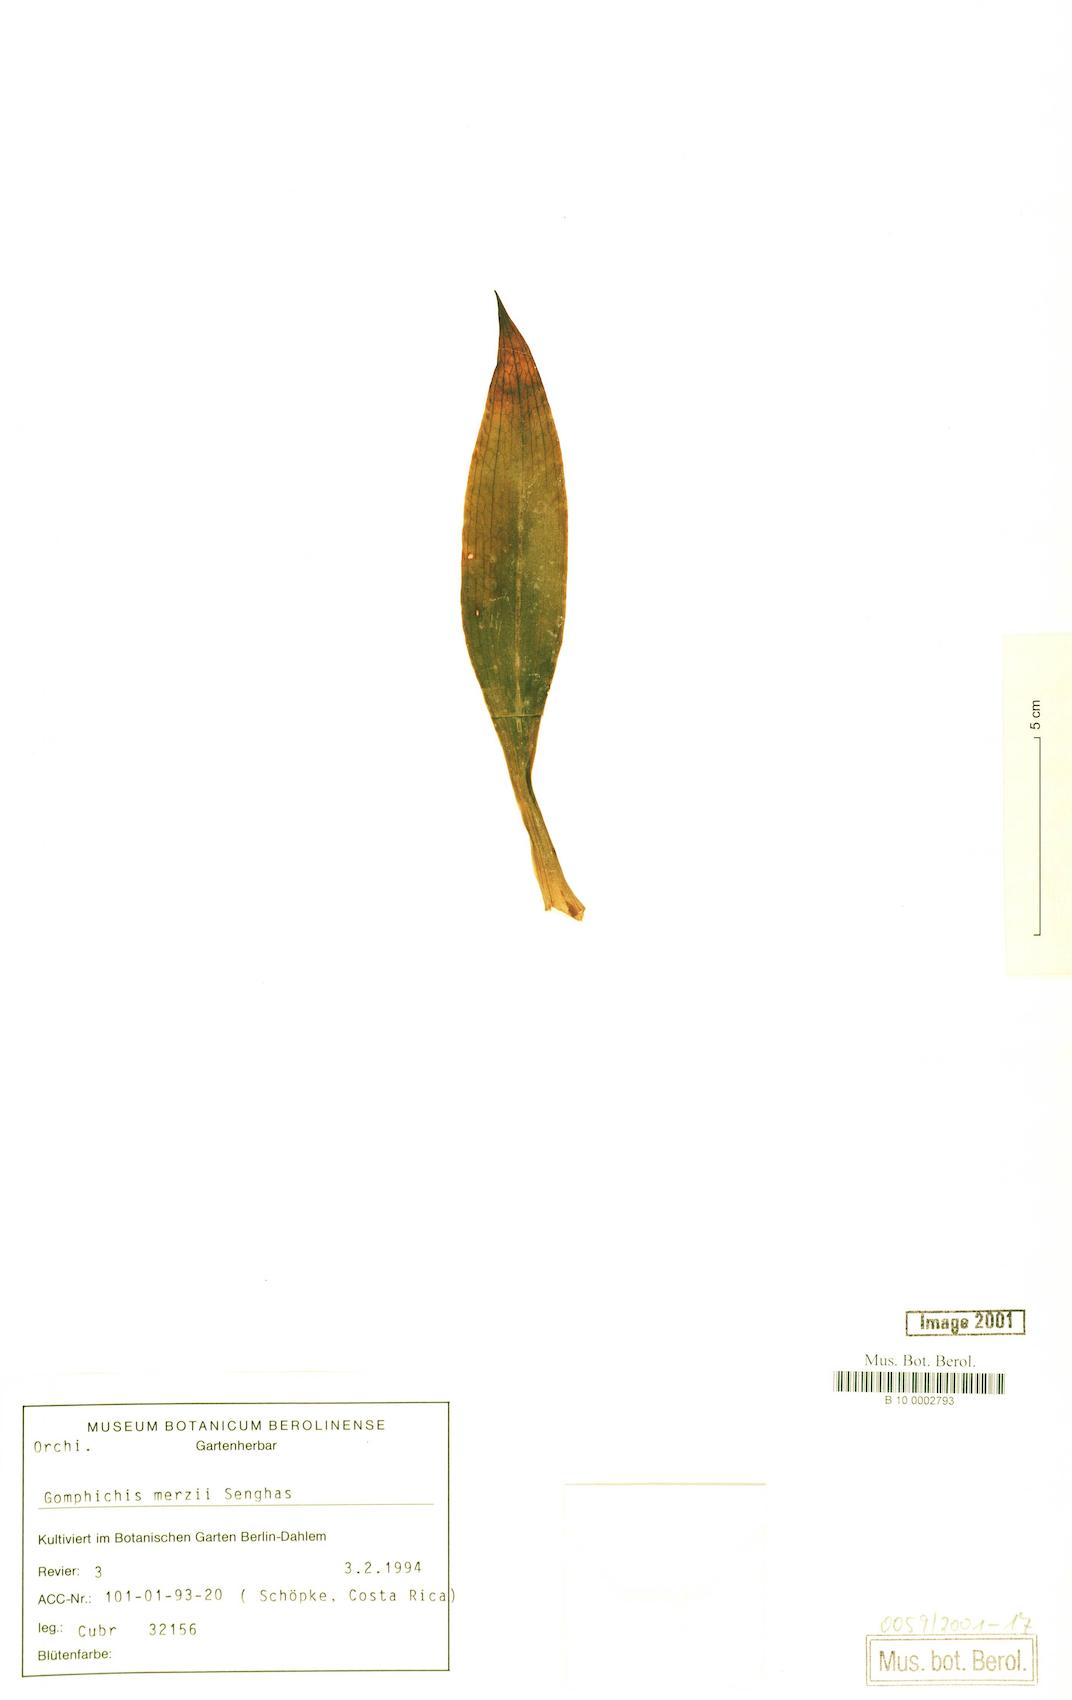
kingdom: Plantae
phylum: Tracheophyta
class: Liliopsida
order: Asparagales
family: Orchidaceae
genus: Gomphichis
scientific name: Gomphichis adnata
